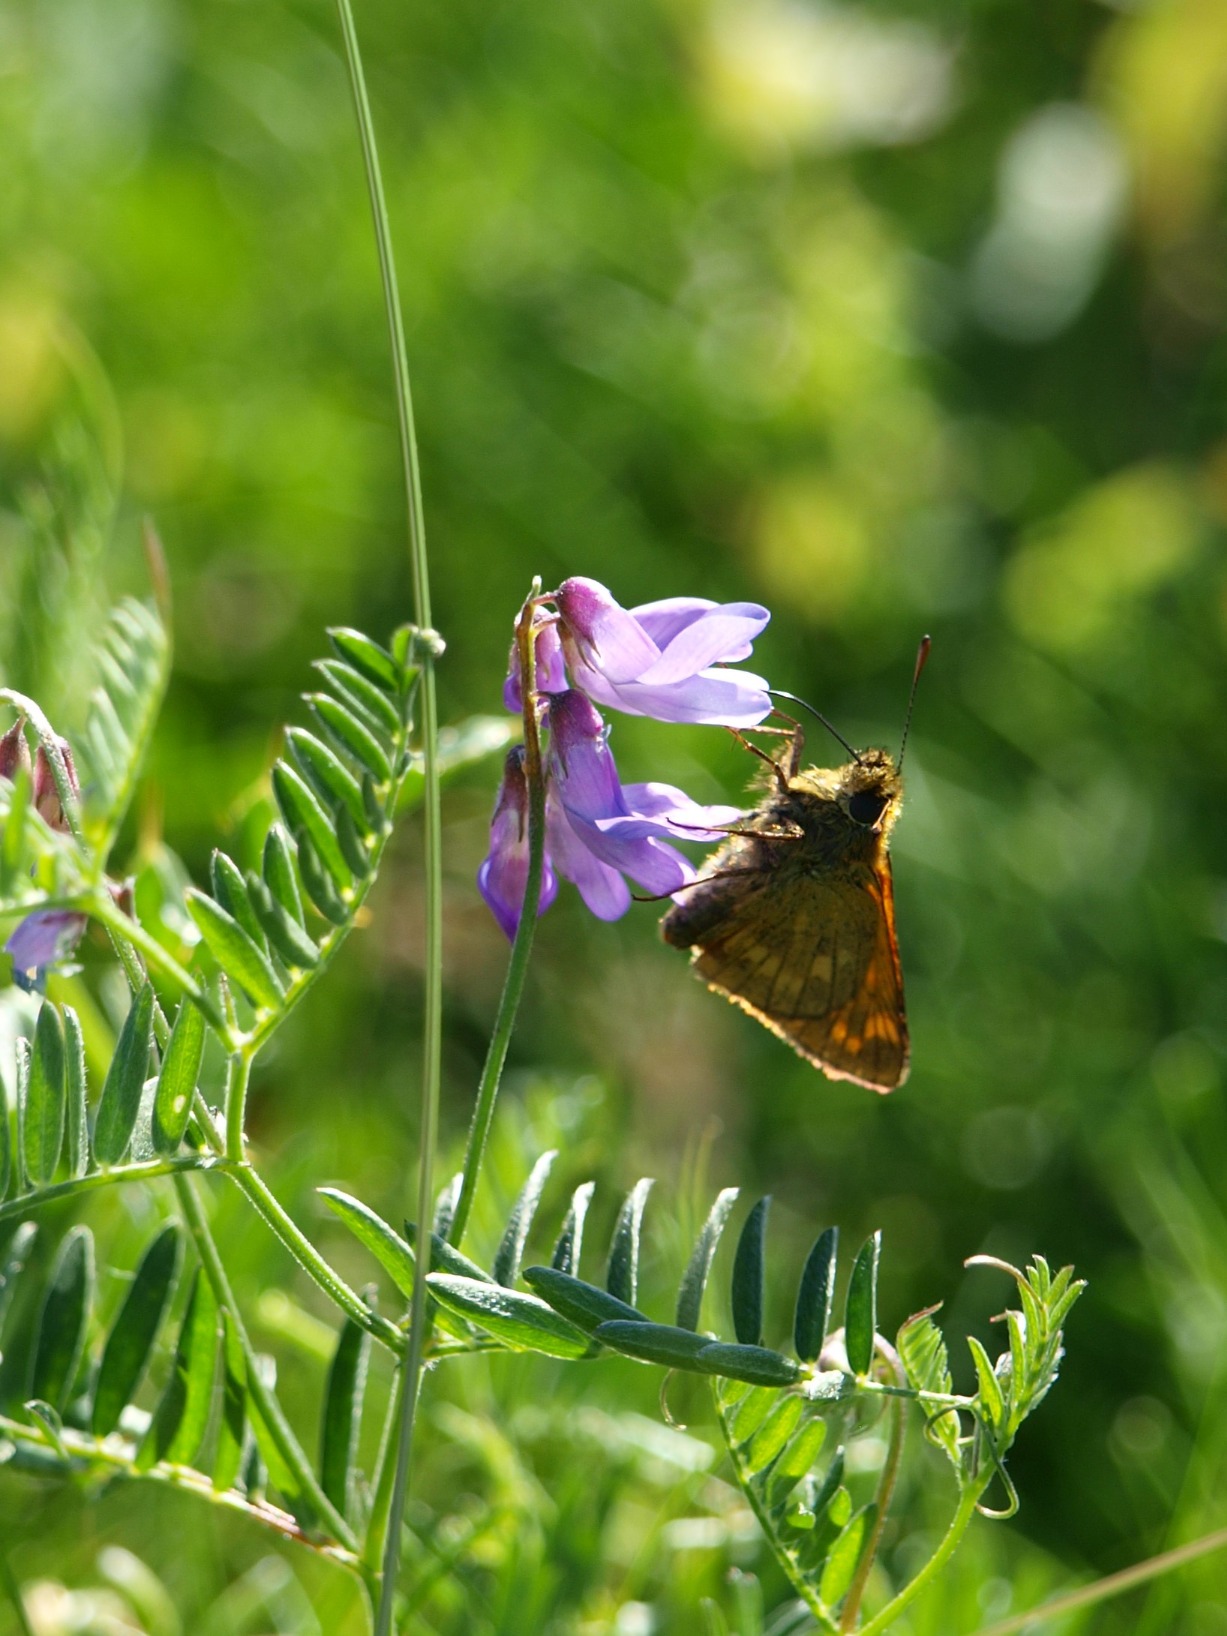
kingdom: Animalia
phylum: Arthropoda
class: Insecta
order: Lepidoptera
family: Hesperiidae
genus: Ochlodes
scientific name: Ochlodes venata
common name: Stor bredpande
